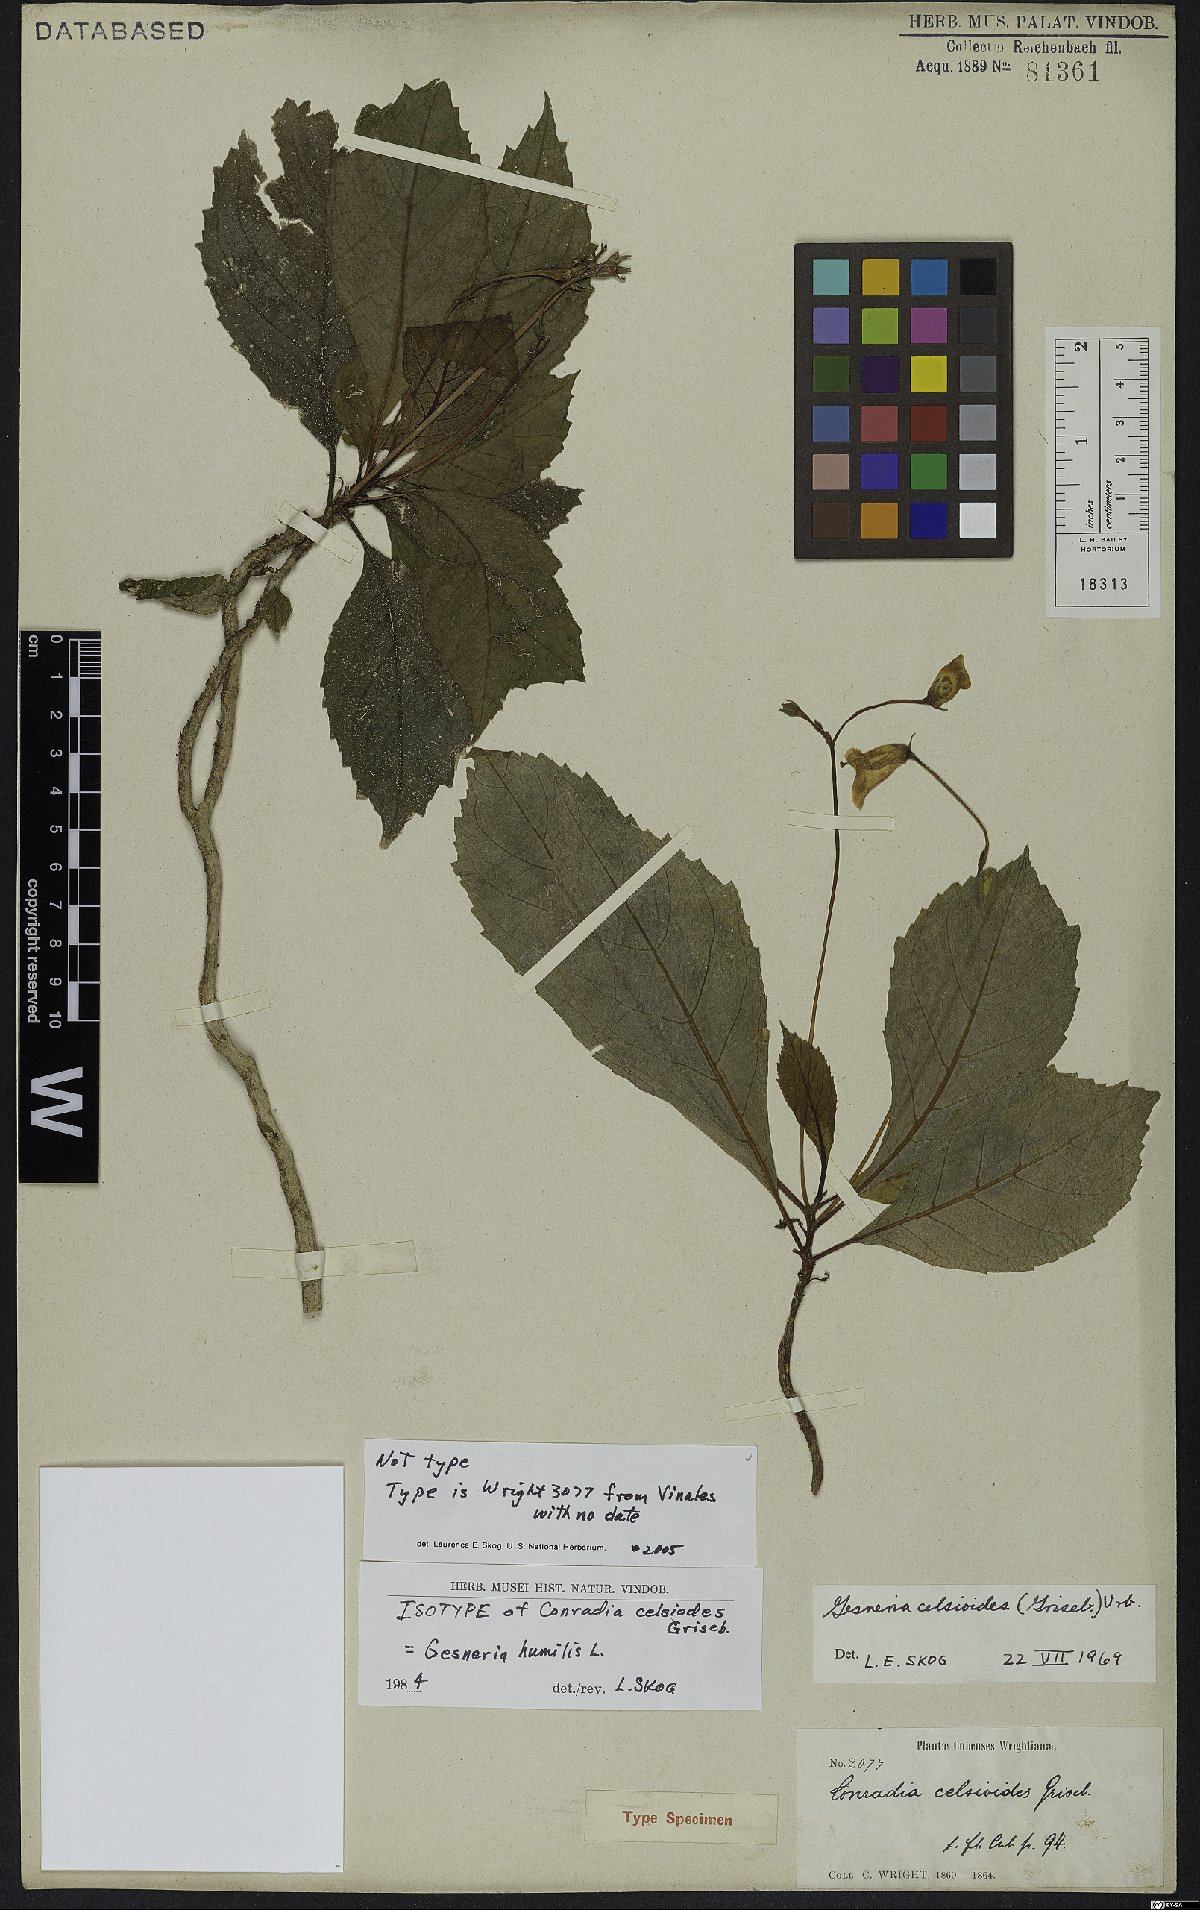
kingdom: Plantae
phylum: Tracheophyta
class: Magnoliopsida
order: Lamiales
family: Gesneriaceae
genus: Gesneria
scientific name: Gesneria humilis
